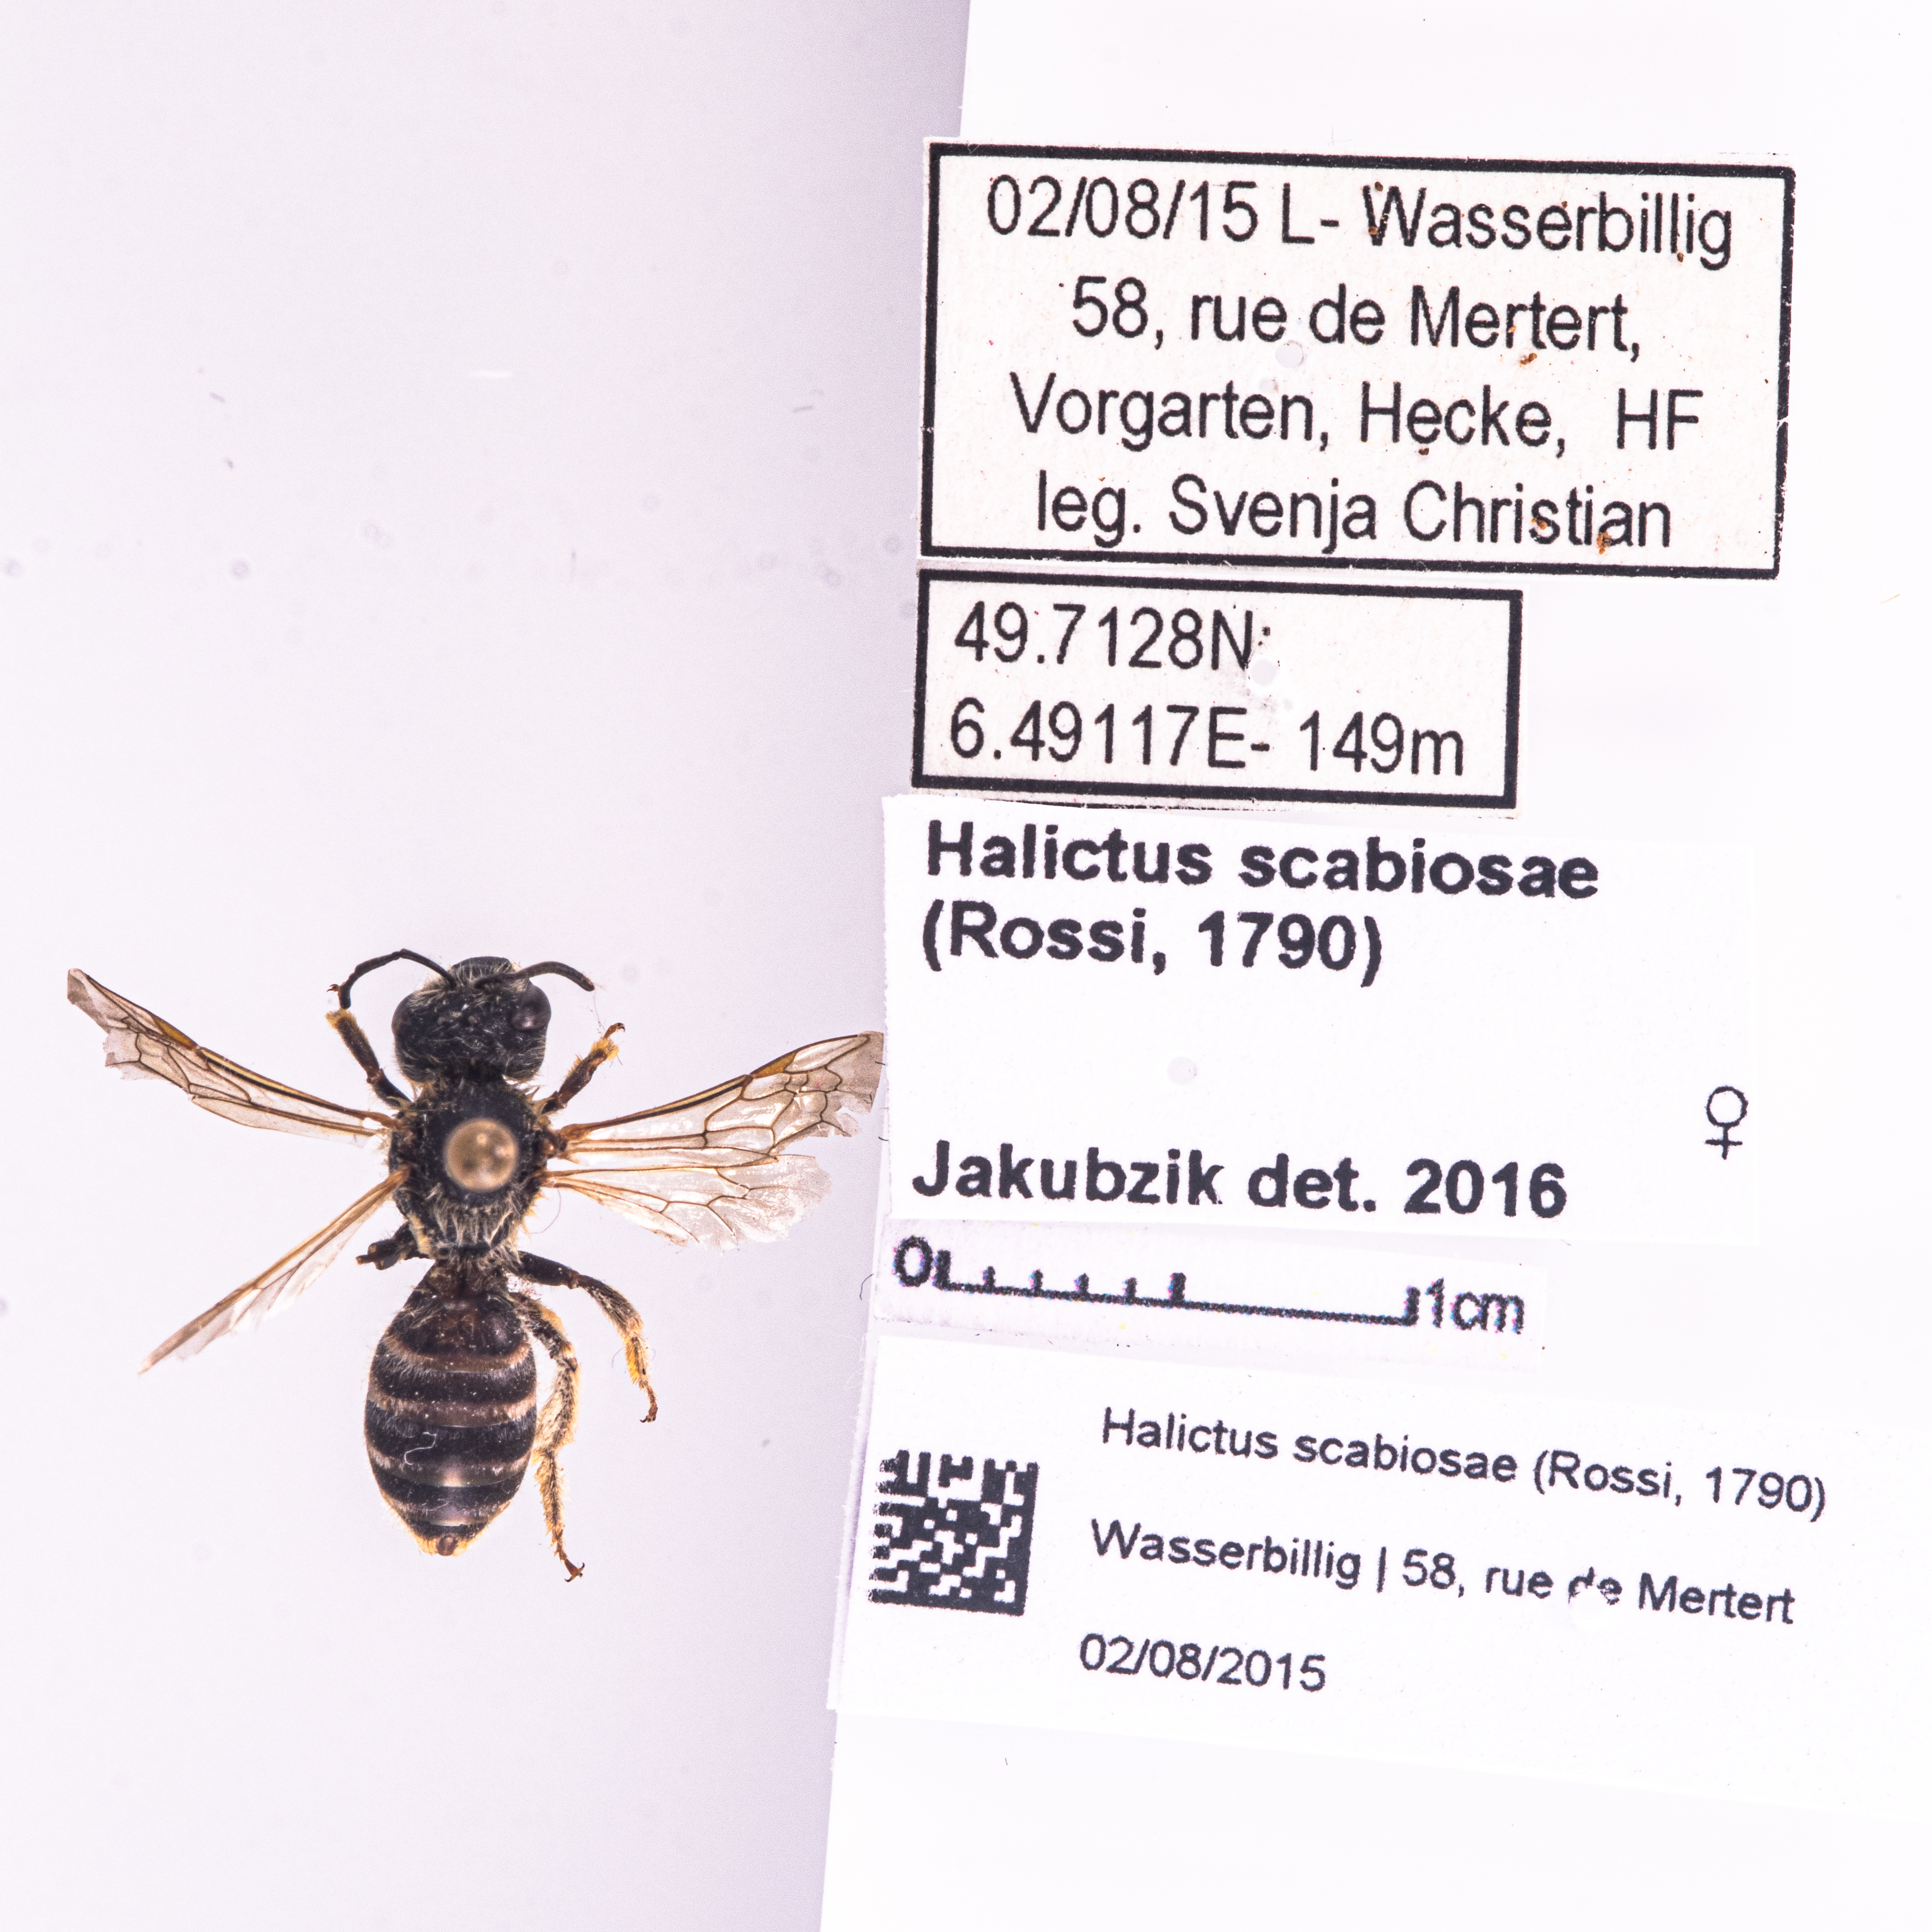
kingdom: Animalia
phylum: Arthropoda
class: Insecta
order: Hymenoptera
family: Halictidae
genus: Halictus
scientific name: Halictus scabiosae
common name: Great banded furrow bee
